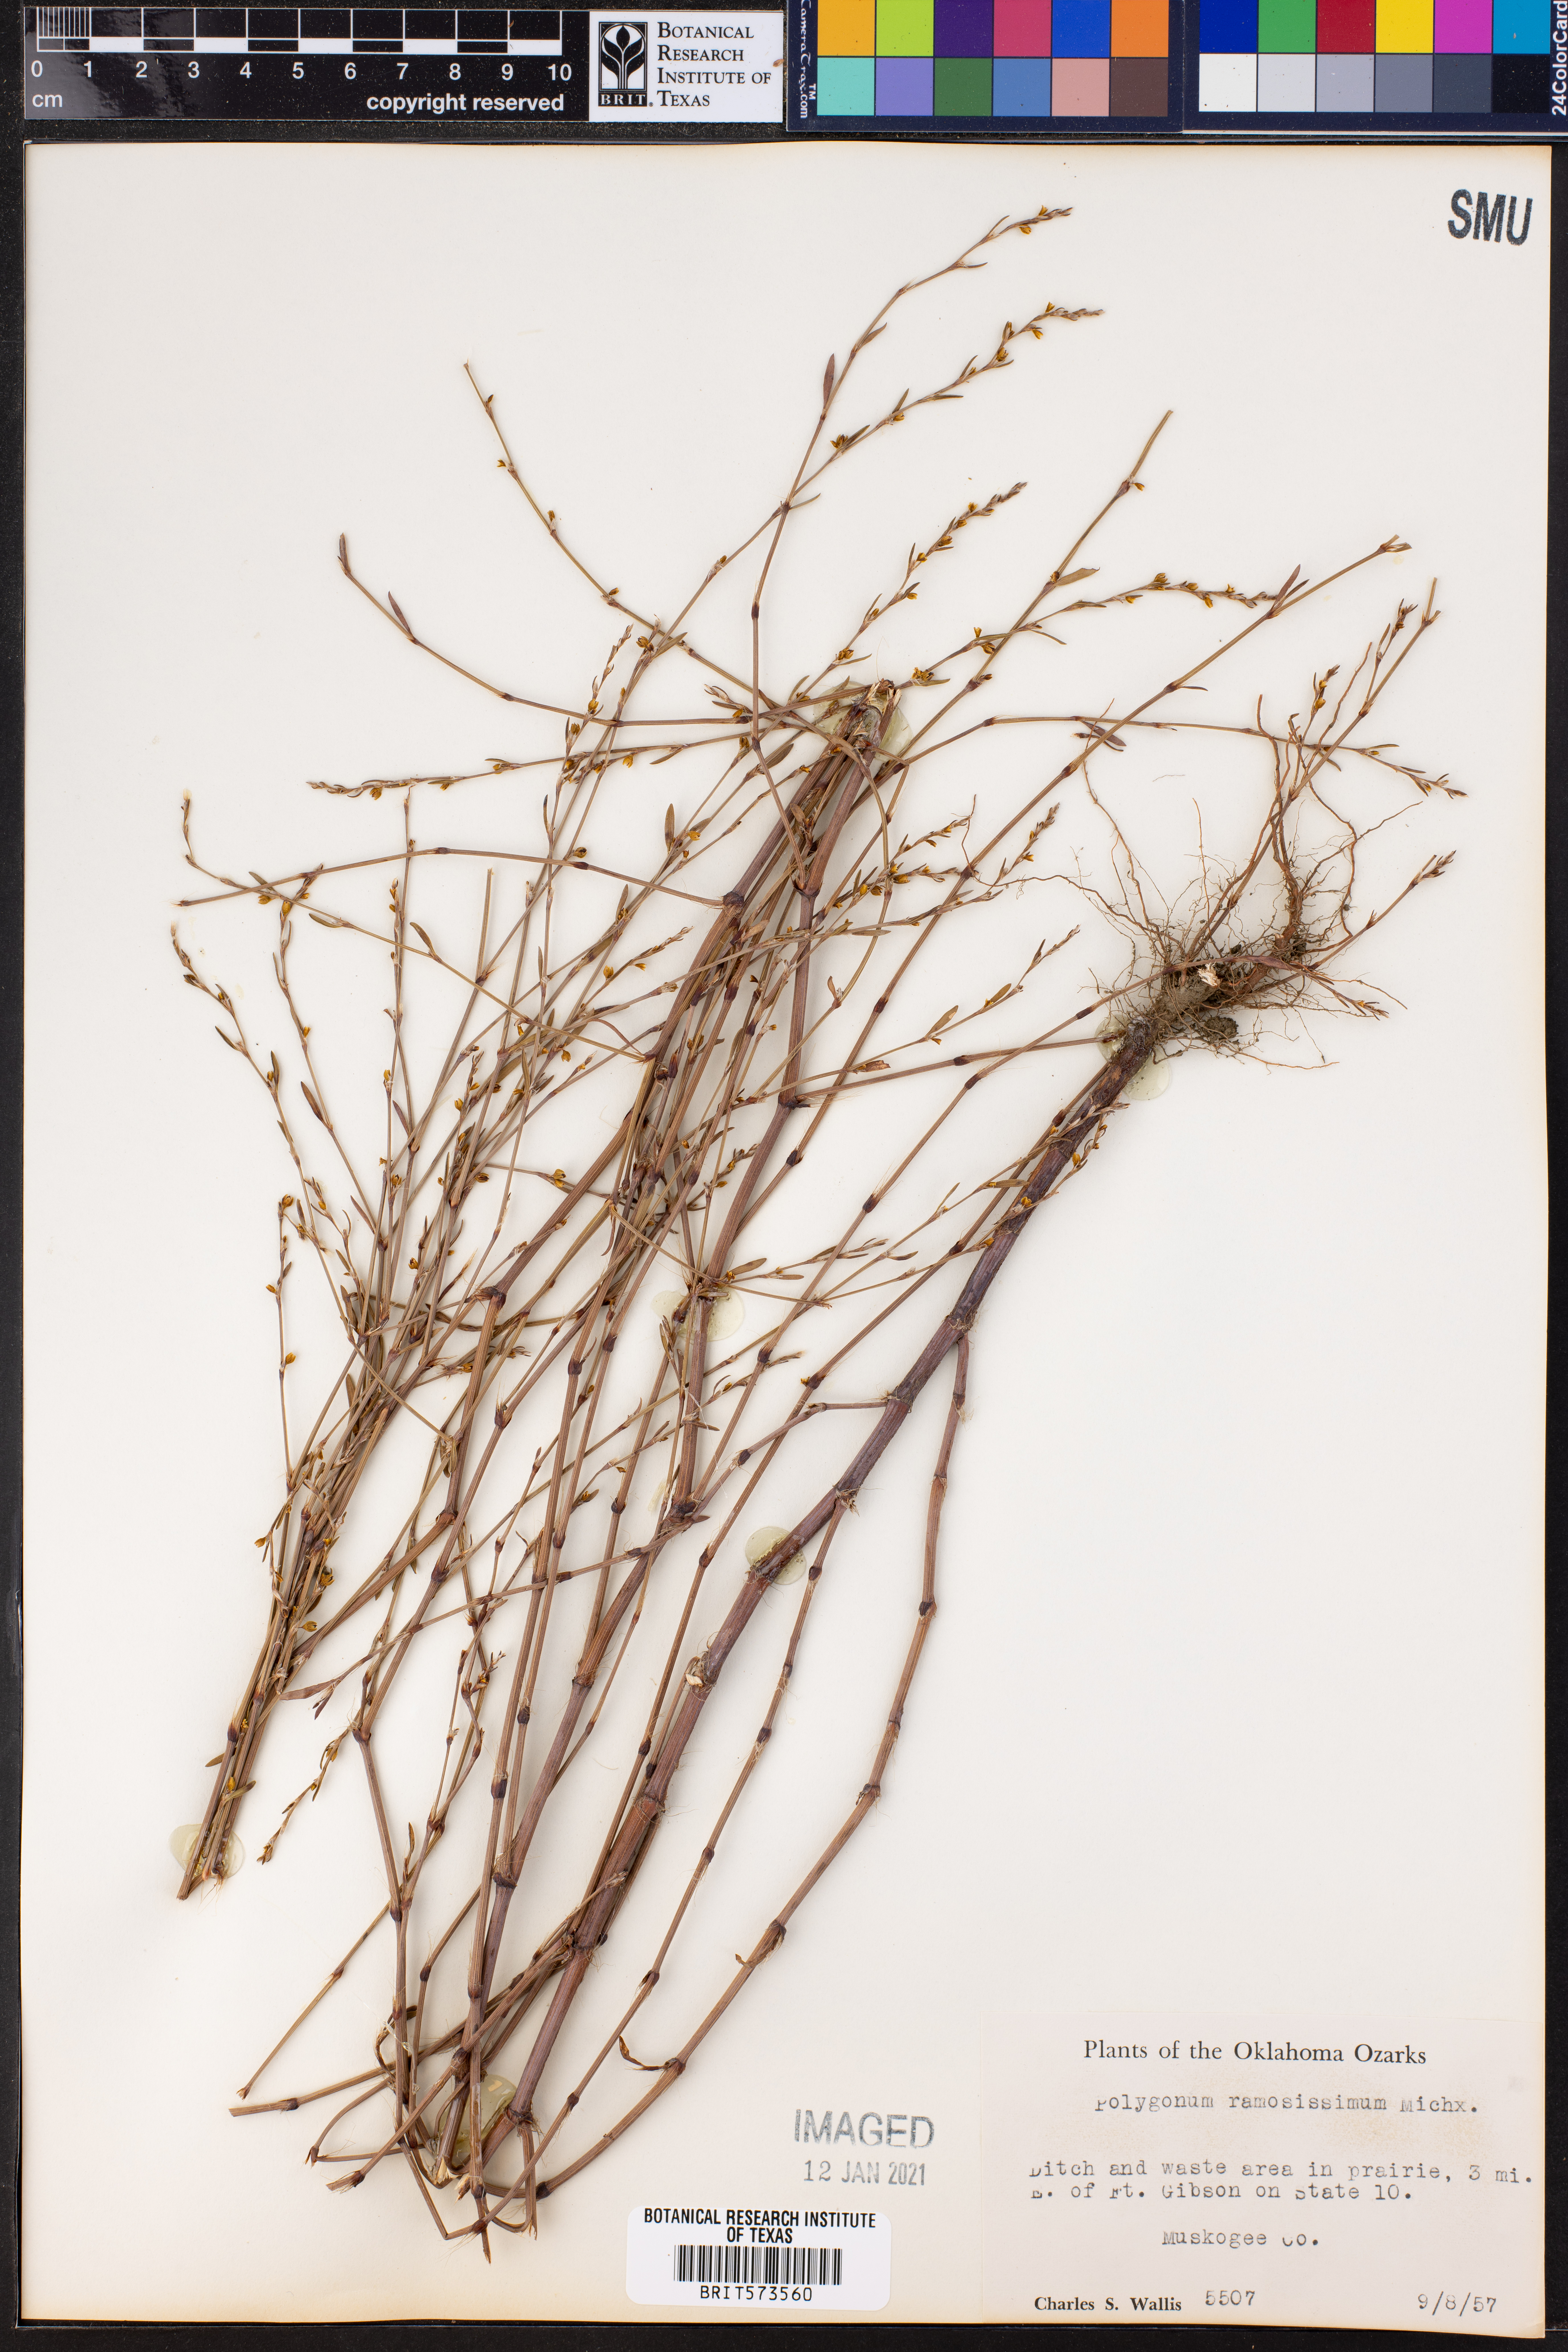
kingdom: Plantae
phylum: Tracheophyta
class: Magnoliopsida
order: Caryophyllales
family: Polygonaceae
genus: Polygonum
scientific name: Polygonum ramosissimum
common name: Bushy knotweed
